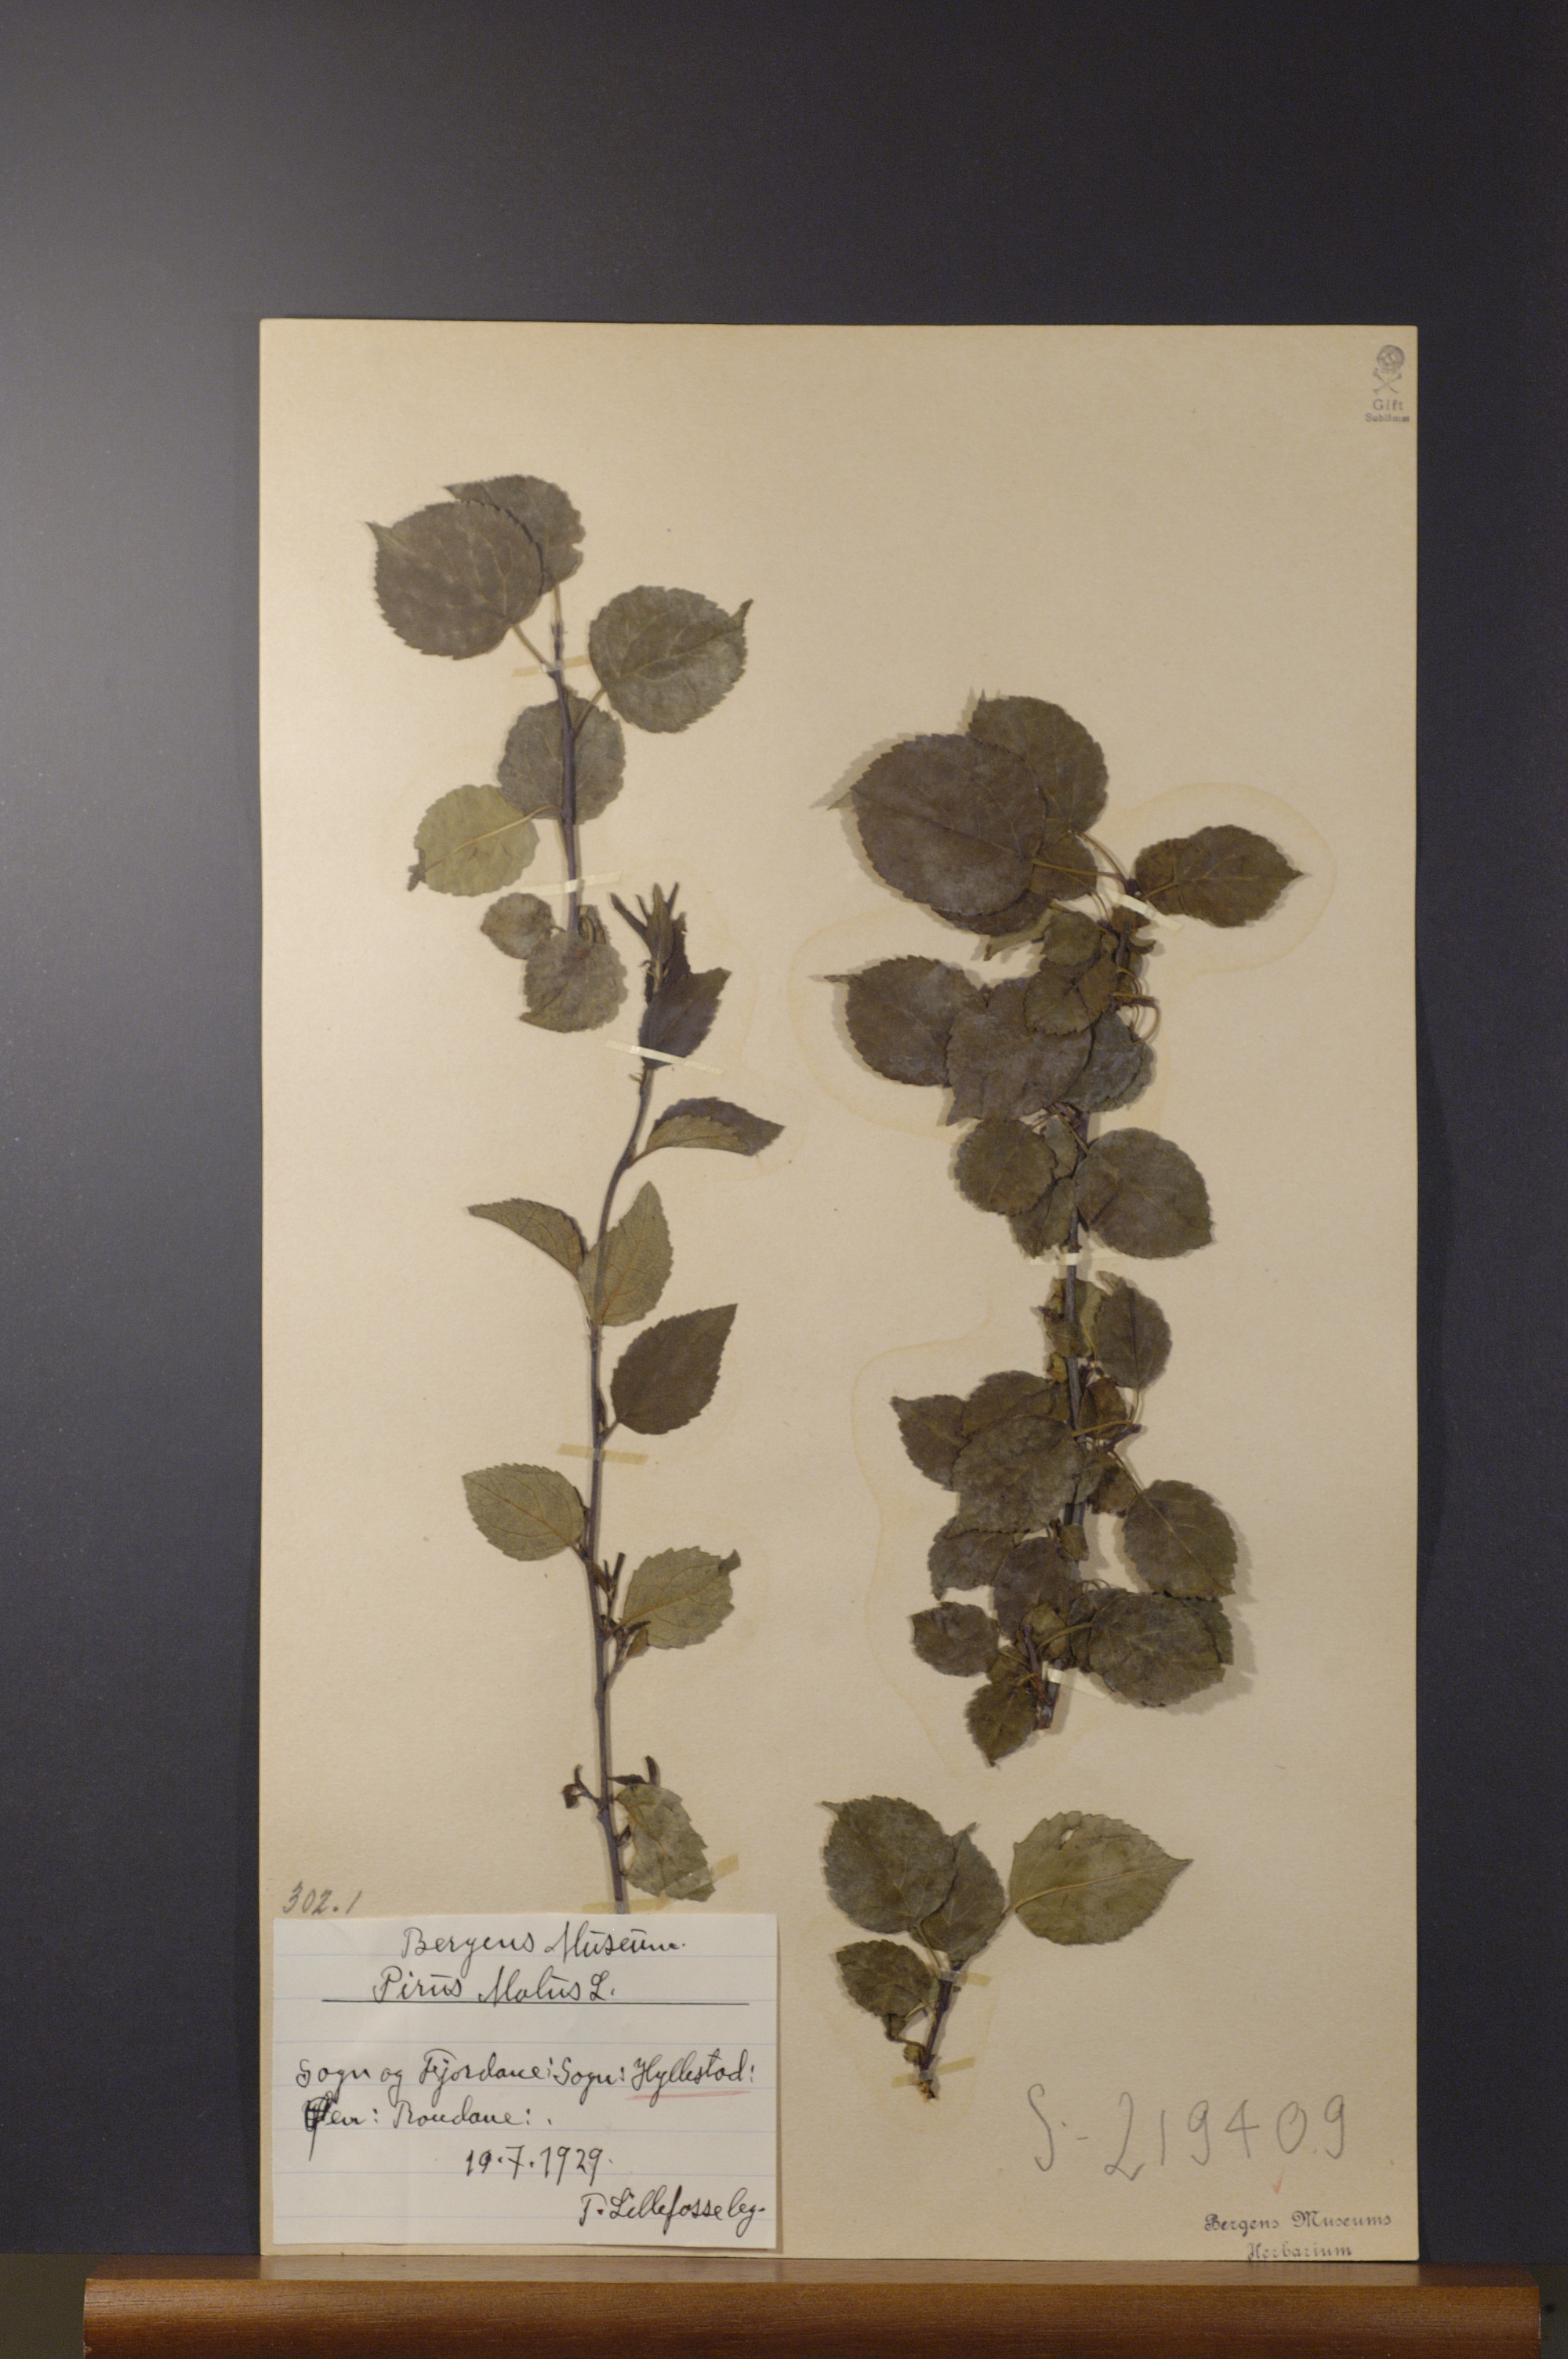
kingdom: Plantae
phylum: Tracheophyta
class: Magnoliopsida
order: Rosales
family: Rosaceae
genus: Malus
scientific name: Malus domestica
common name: Apple
